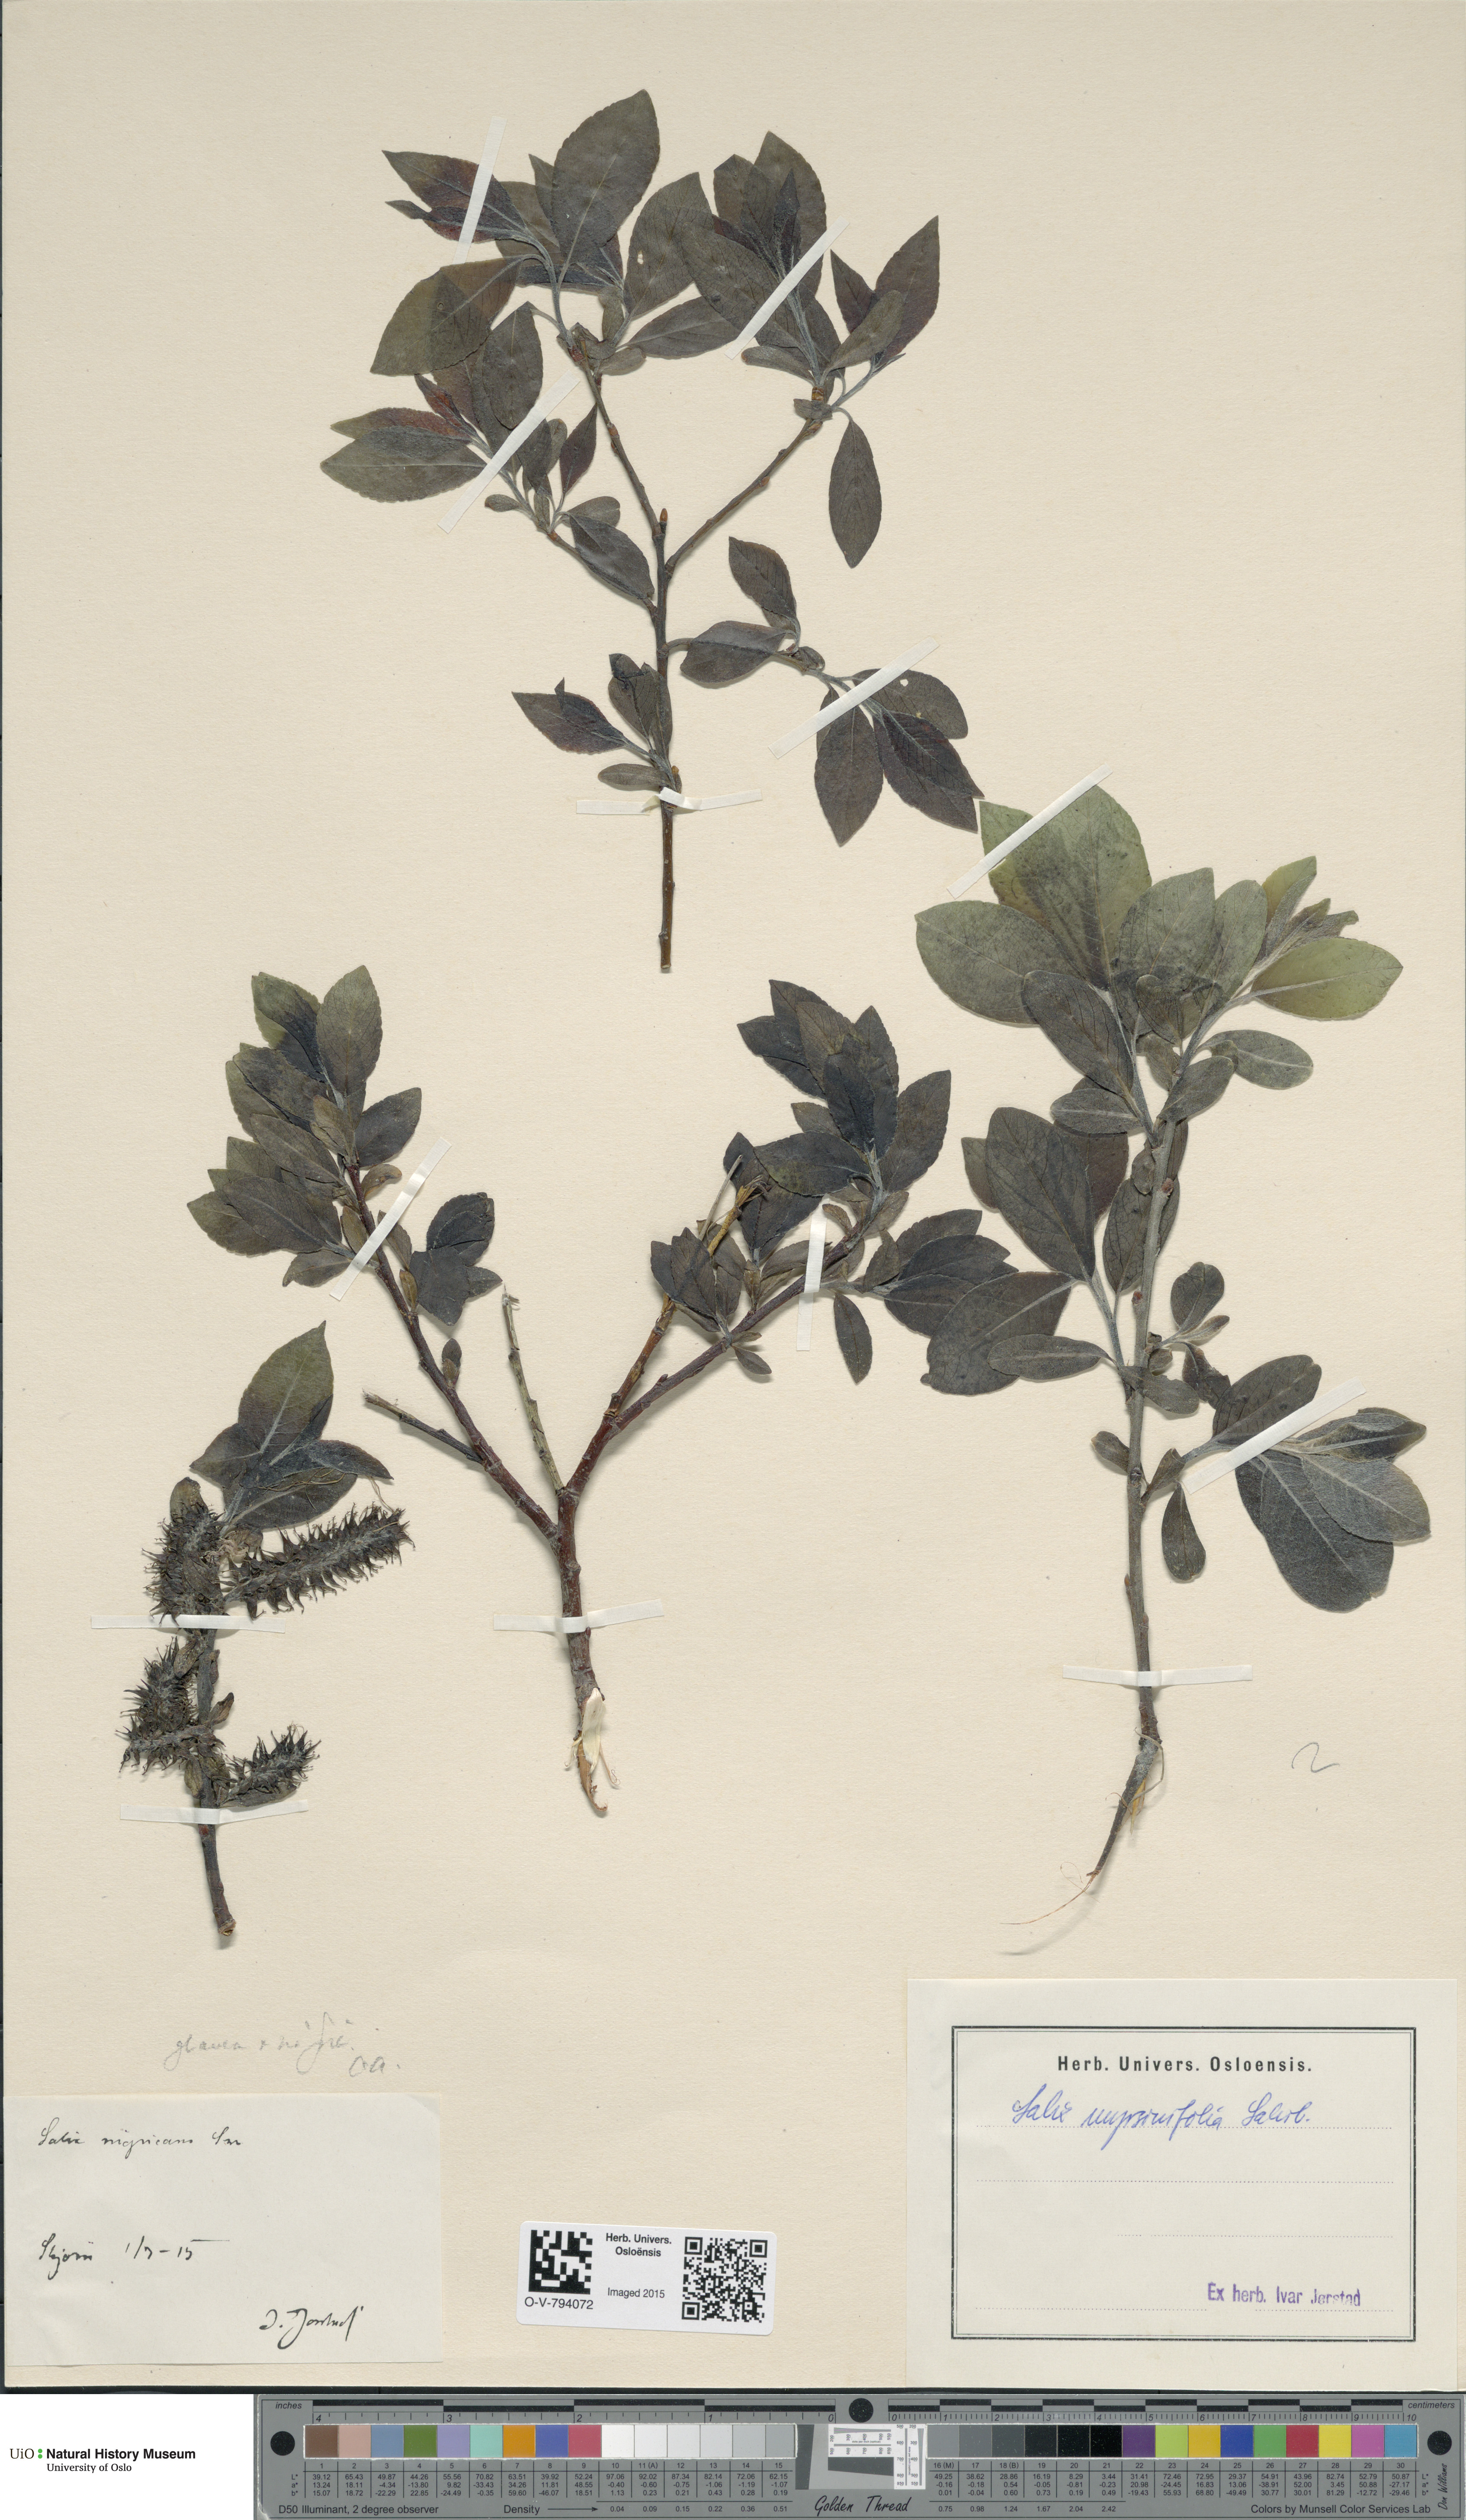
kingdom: Plantae
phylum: Tracheophyta
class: Magnoliopsida
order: Malpighiales
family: Salicaceae
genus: Salix
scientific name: Salix myrsinifolia
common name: Dark-leaved willow
